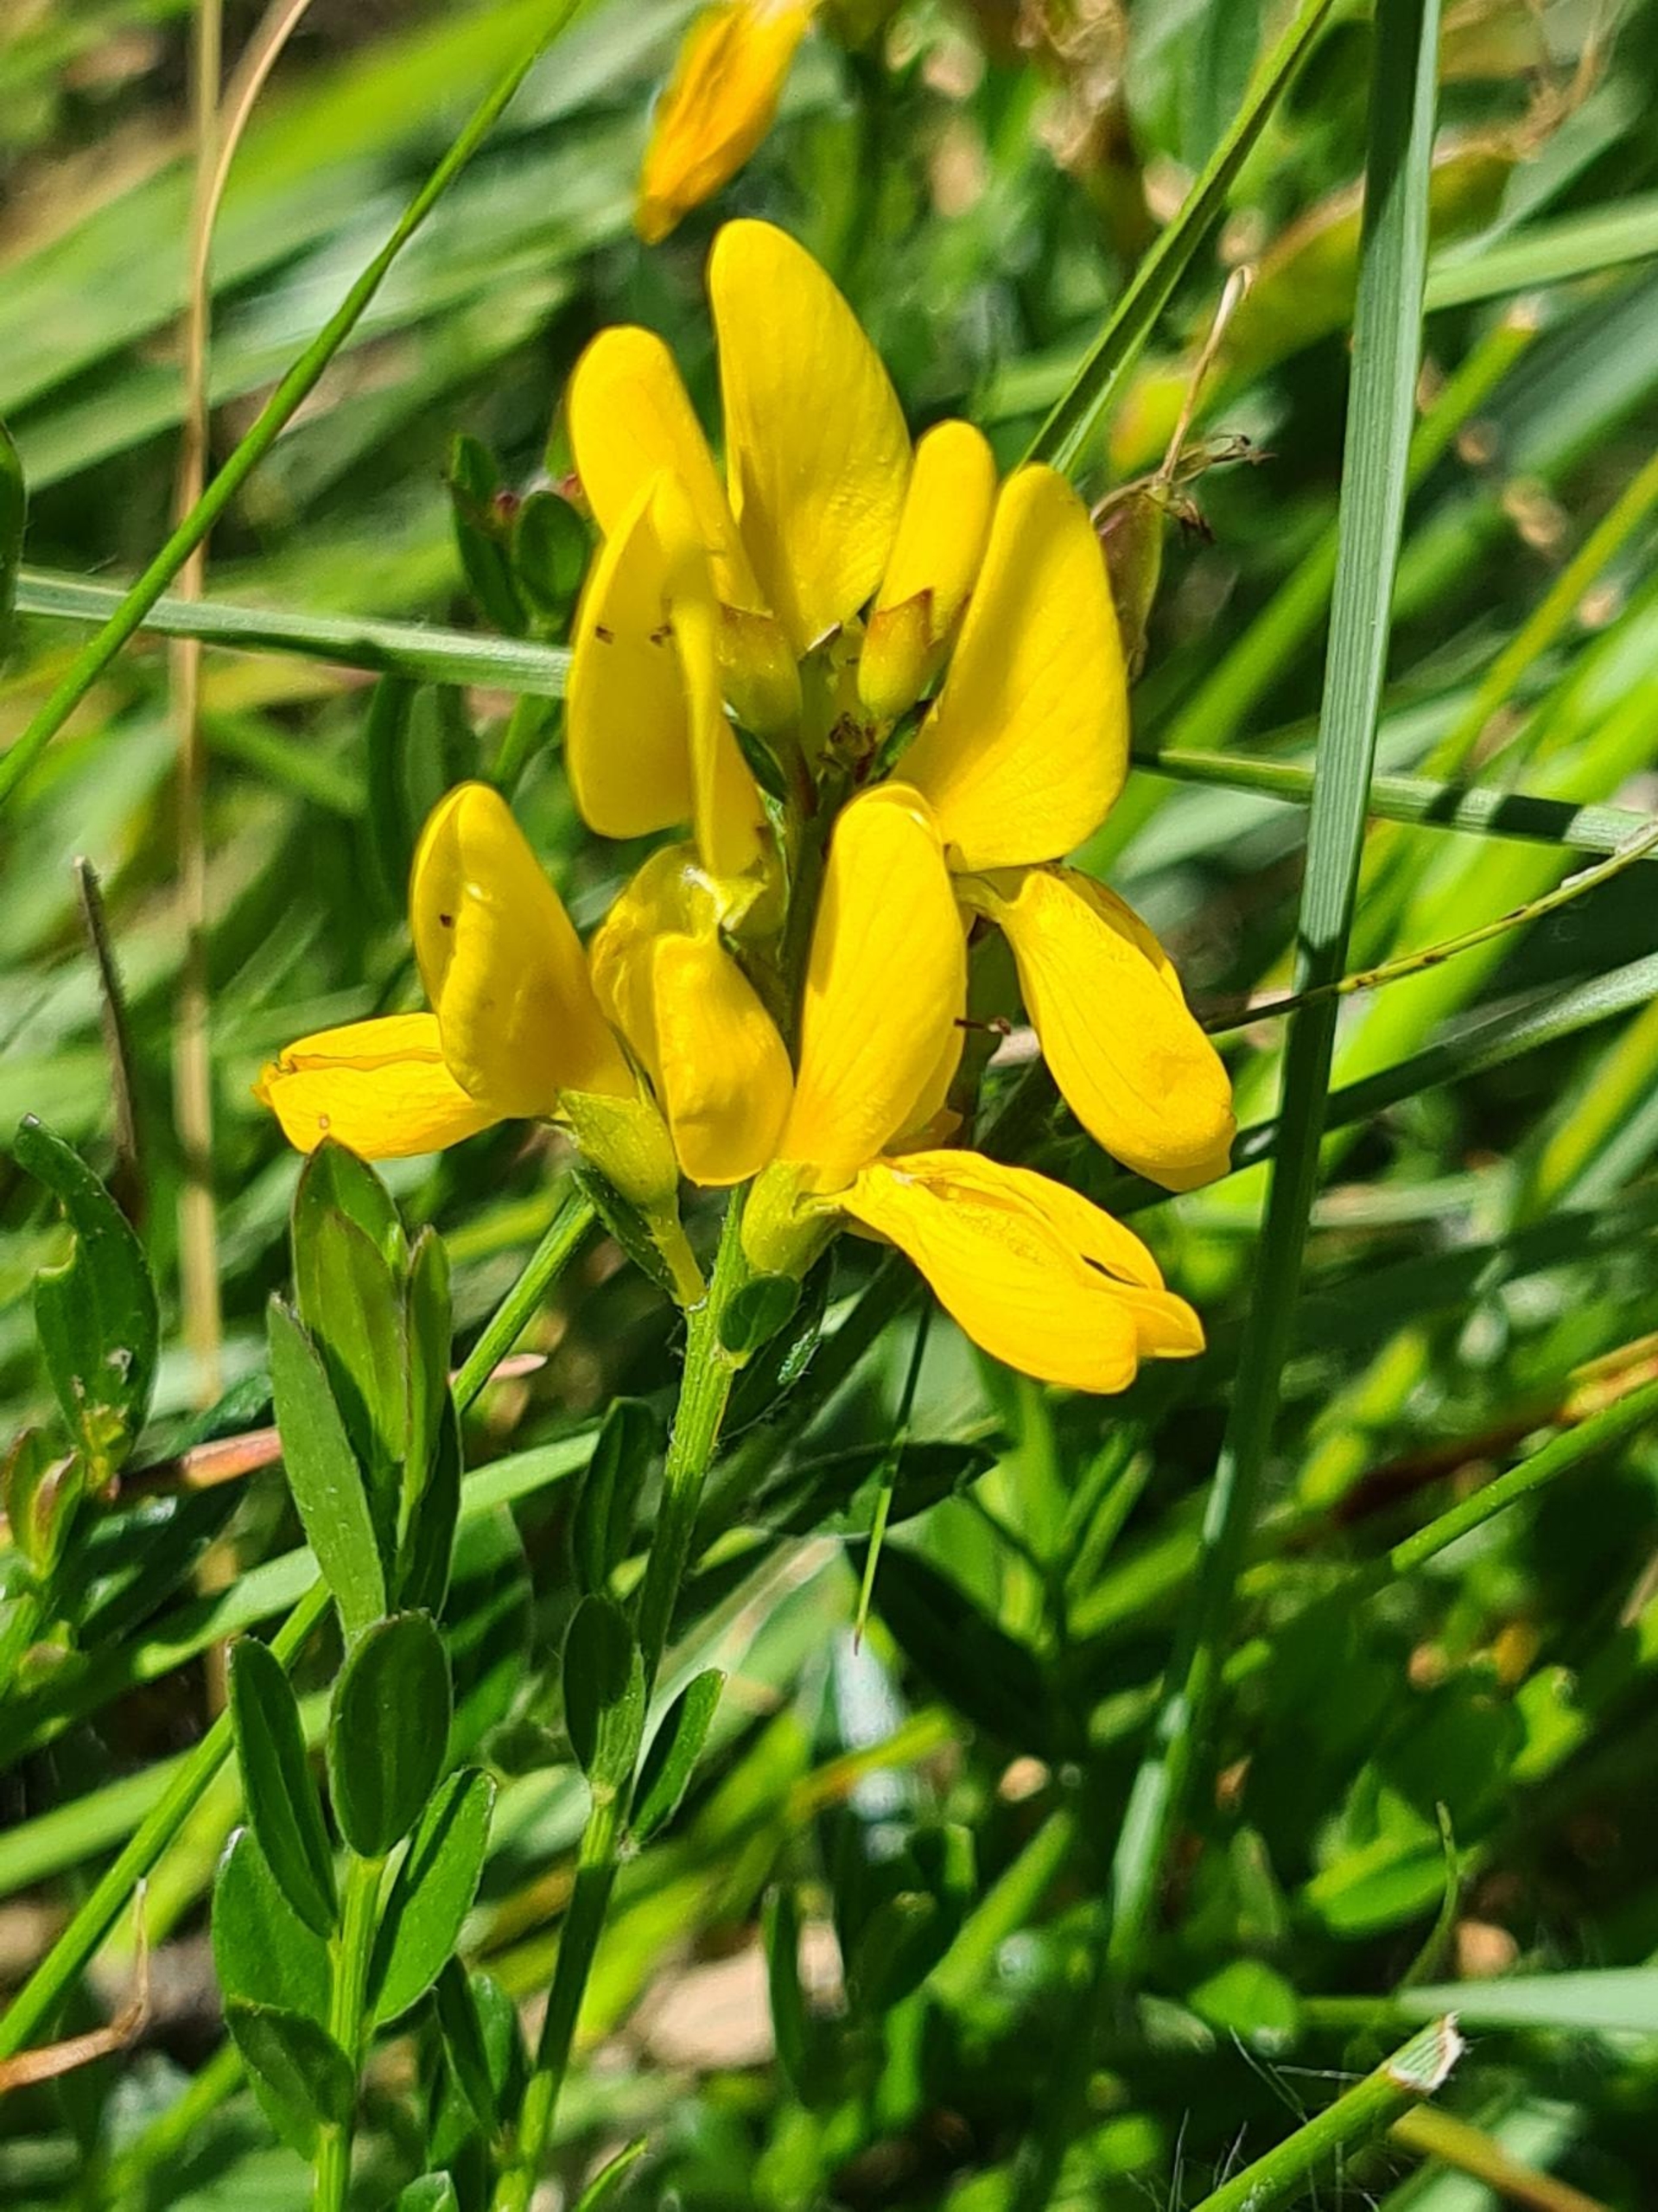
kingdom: Plantae
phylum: Tracheophyta
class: Magnoliopsida
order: Fabales
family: Fabaceae
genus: Genista
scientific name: Genista tinctoria
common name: Farve-visse
